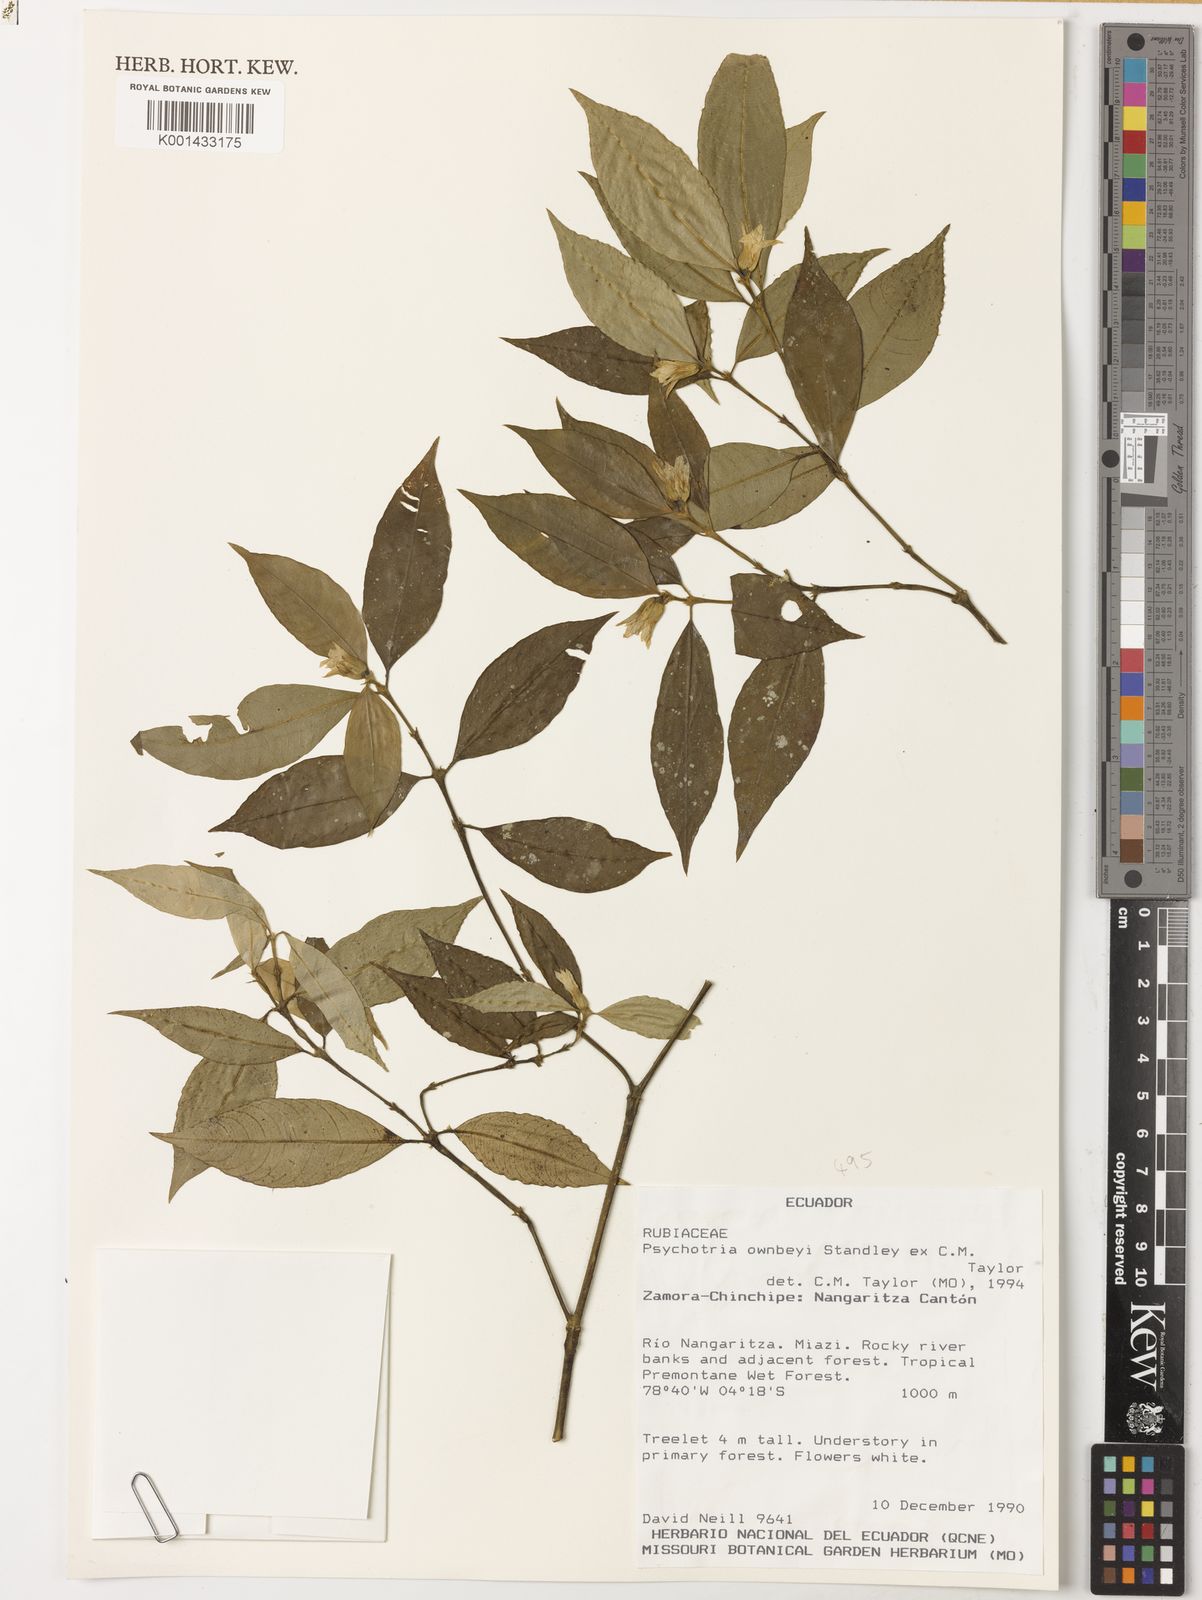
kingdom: Plantae
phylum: Tracheophyta
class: Magnoliopsida
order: Gentianales
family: Rubiaceae
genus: Palicourea
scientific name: Palicourea ownbeyi
